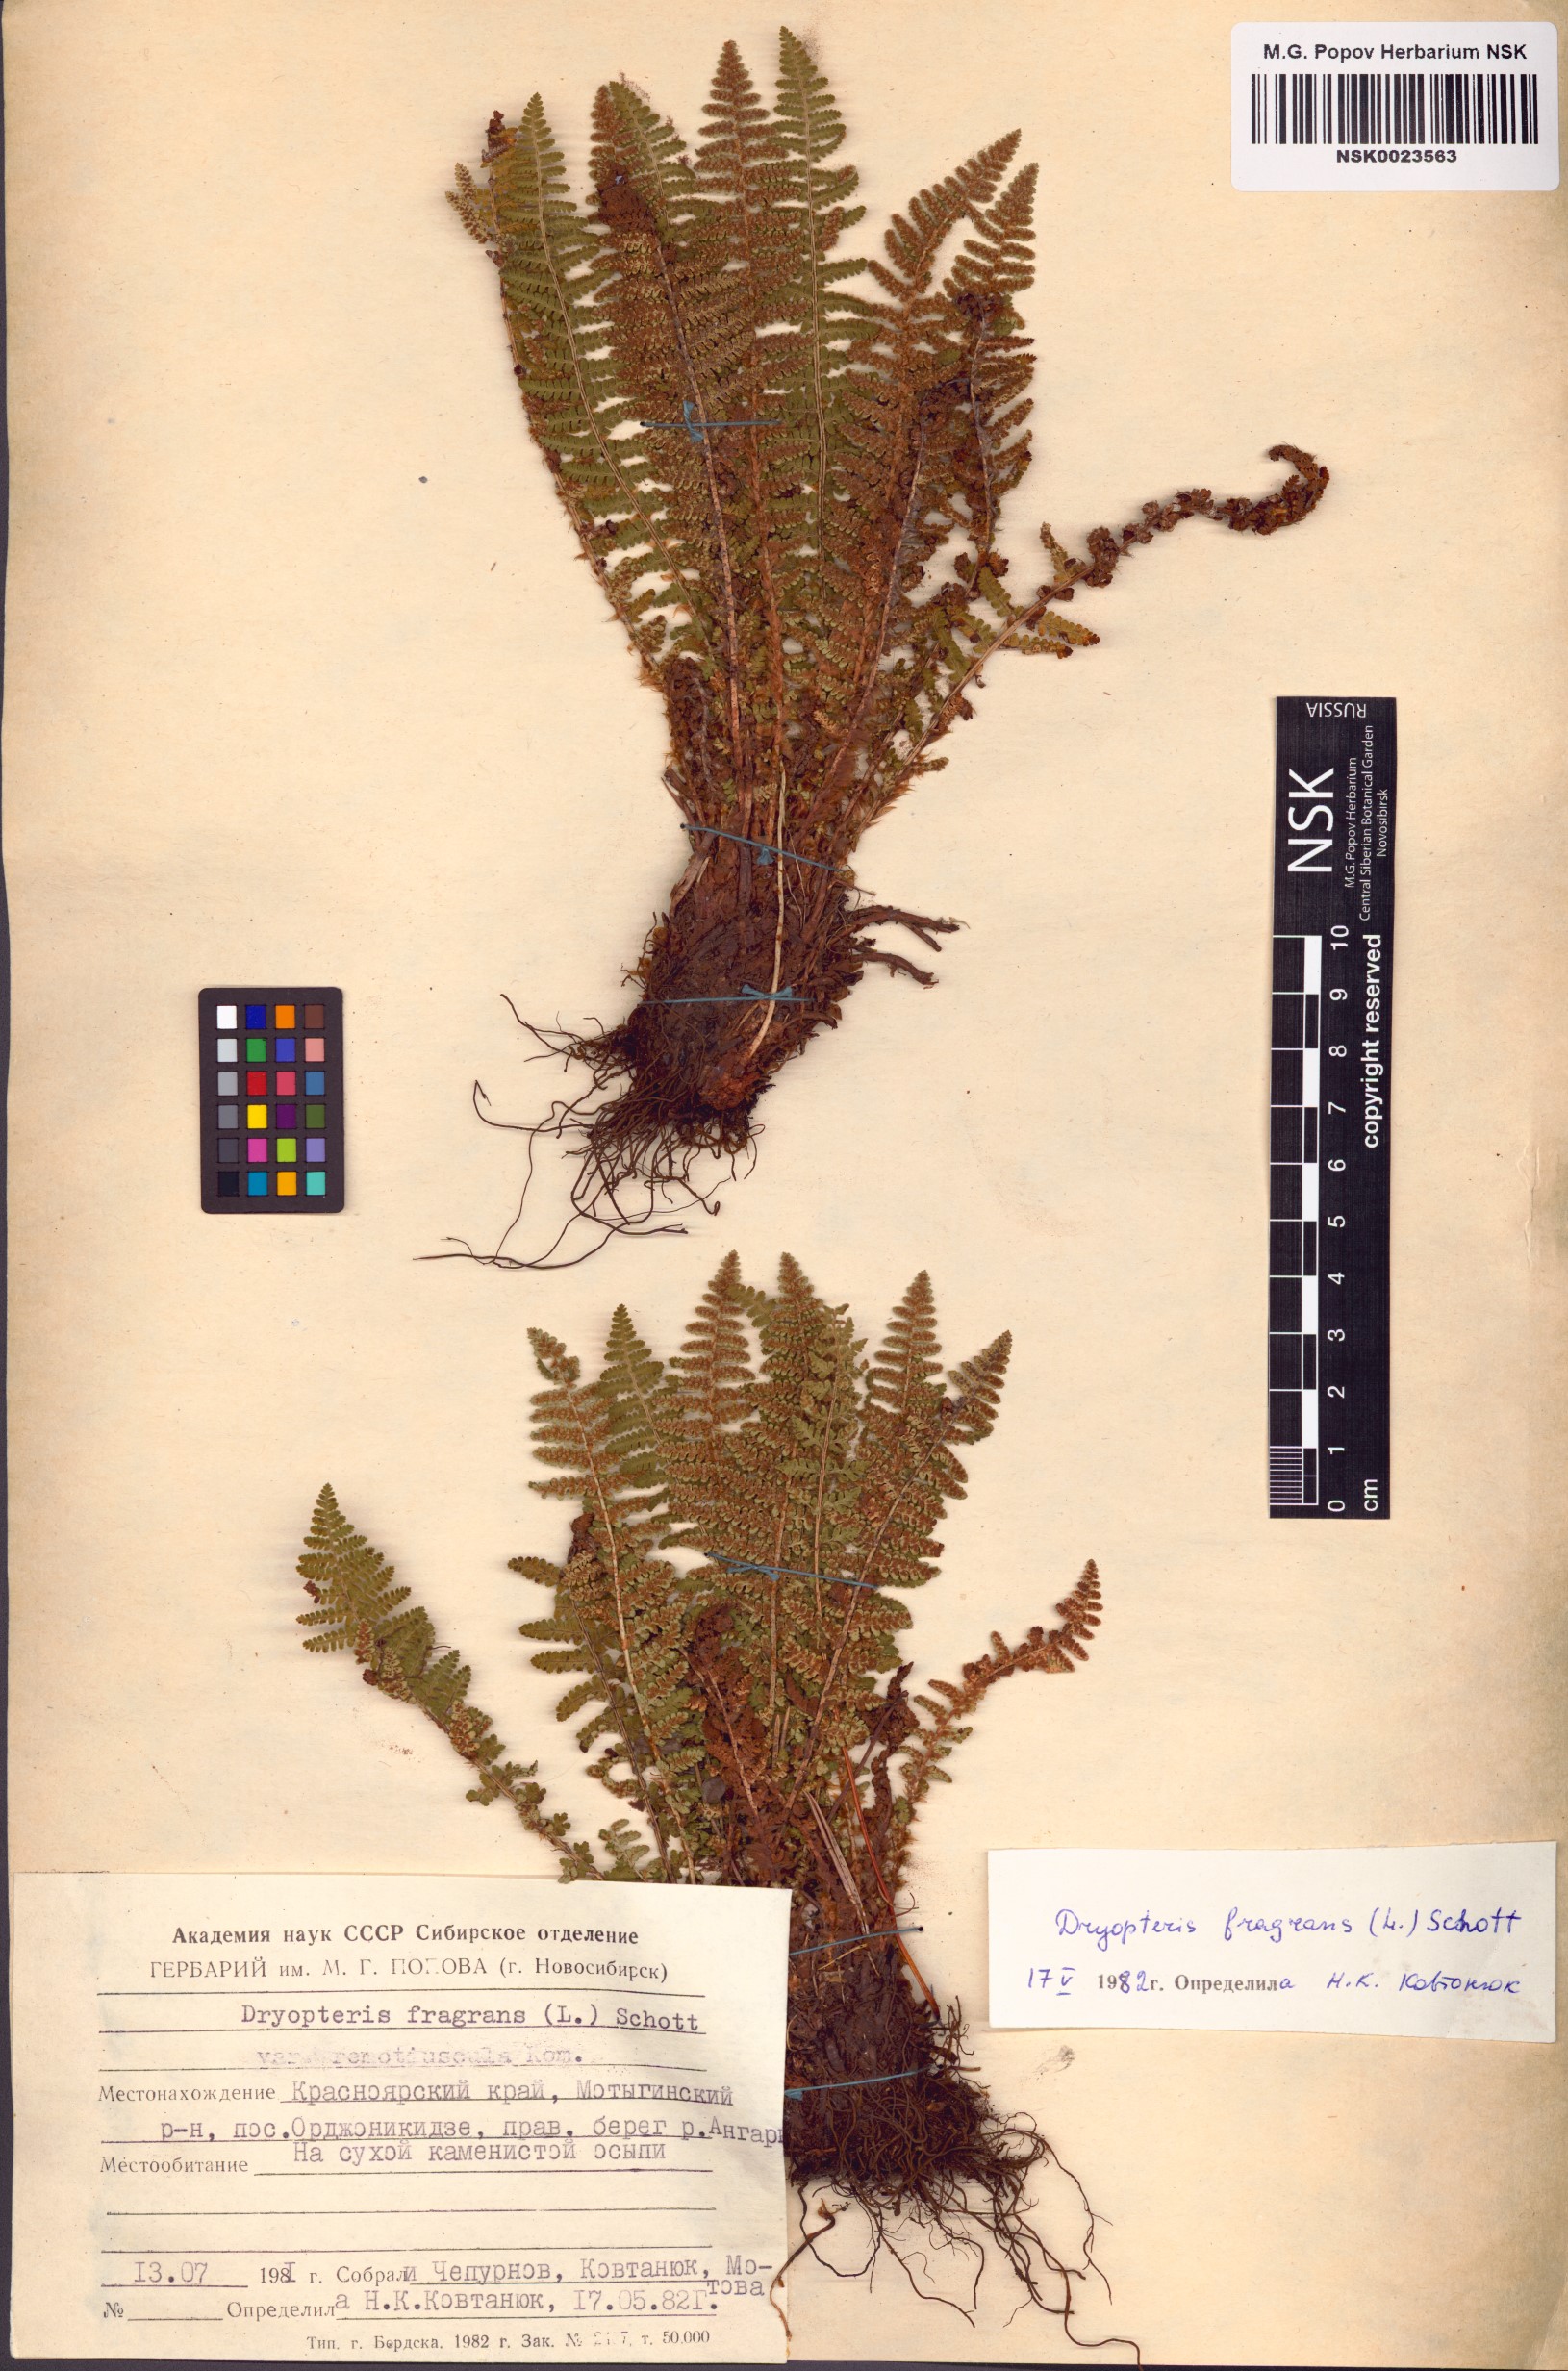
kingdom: Plantae
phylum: Tracheophyta
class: Polypodiopsida
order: Polypodiales
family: Dryopteridaceae
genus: Dryopteris
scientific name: Dryopteris fragrans
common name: Fragrant wood fern
